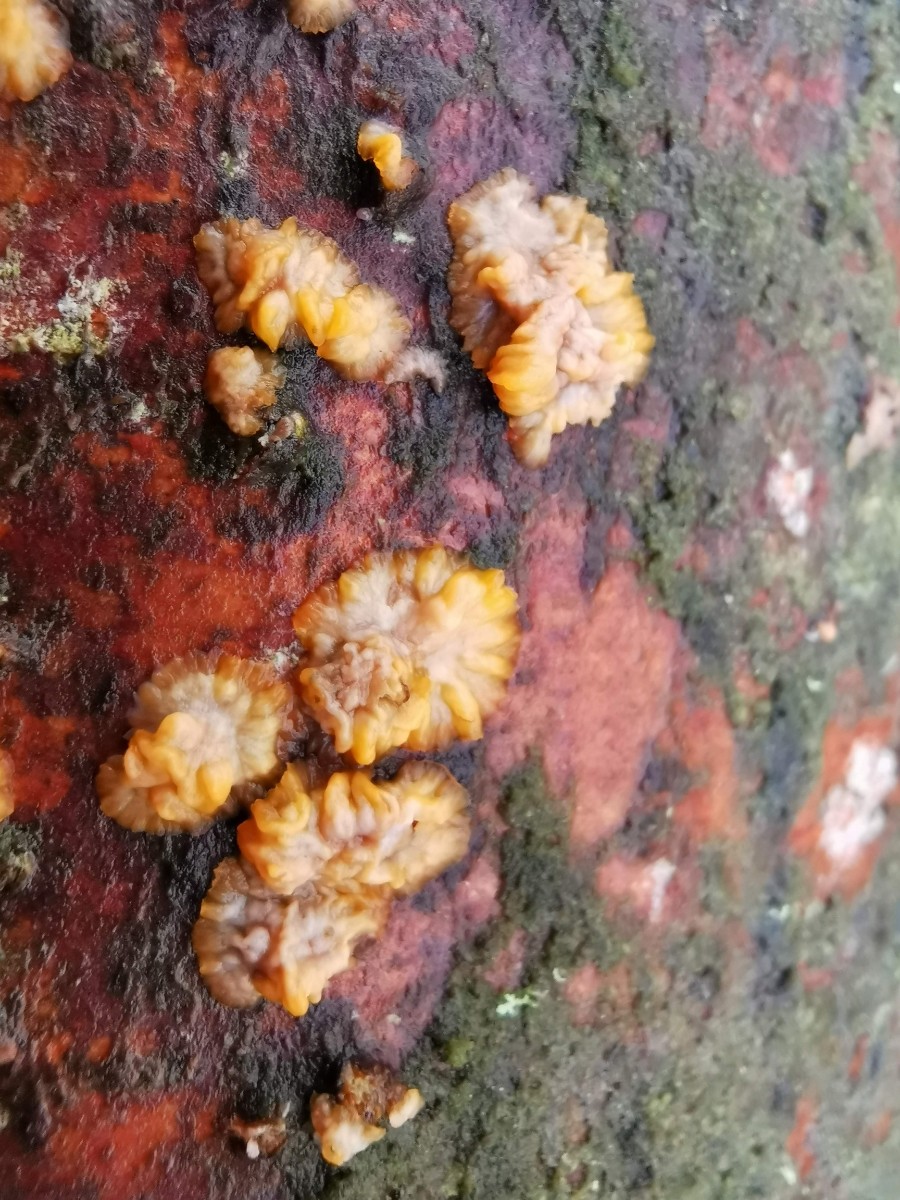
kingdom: Fungi
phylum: Basidiomycota
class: Agaricomycetes
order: Polyporales
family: Meruliaceae
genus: Phlebia
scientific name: Phlebia radiata
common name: stråle-åresvamp
